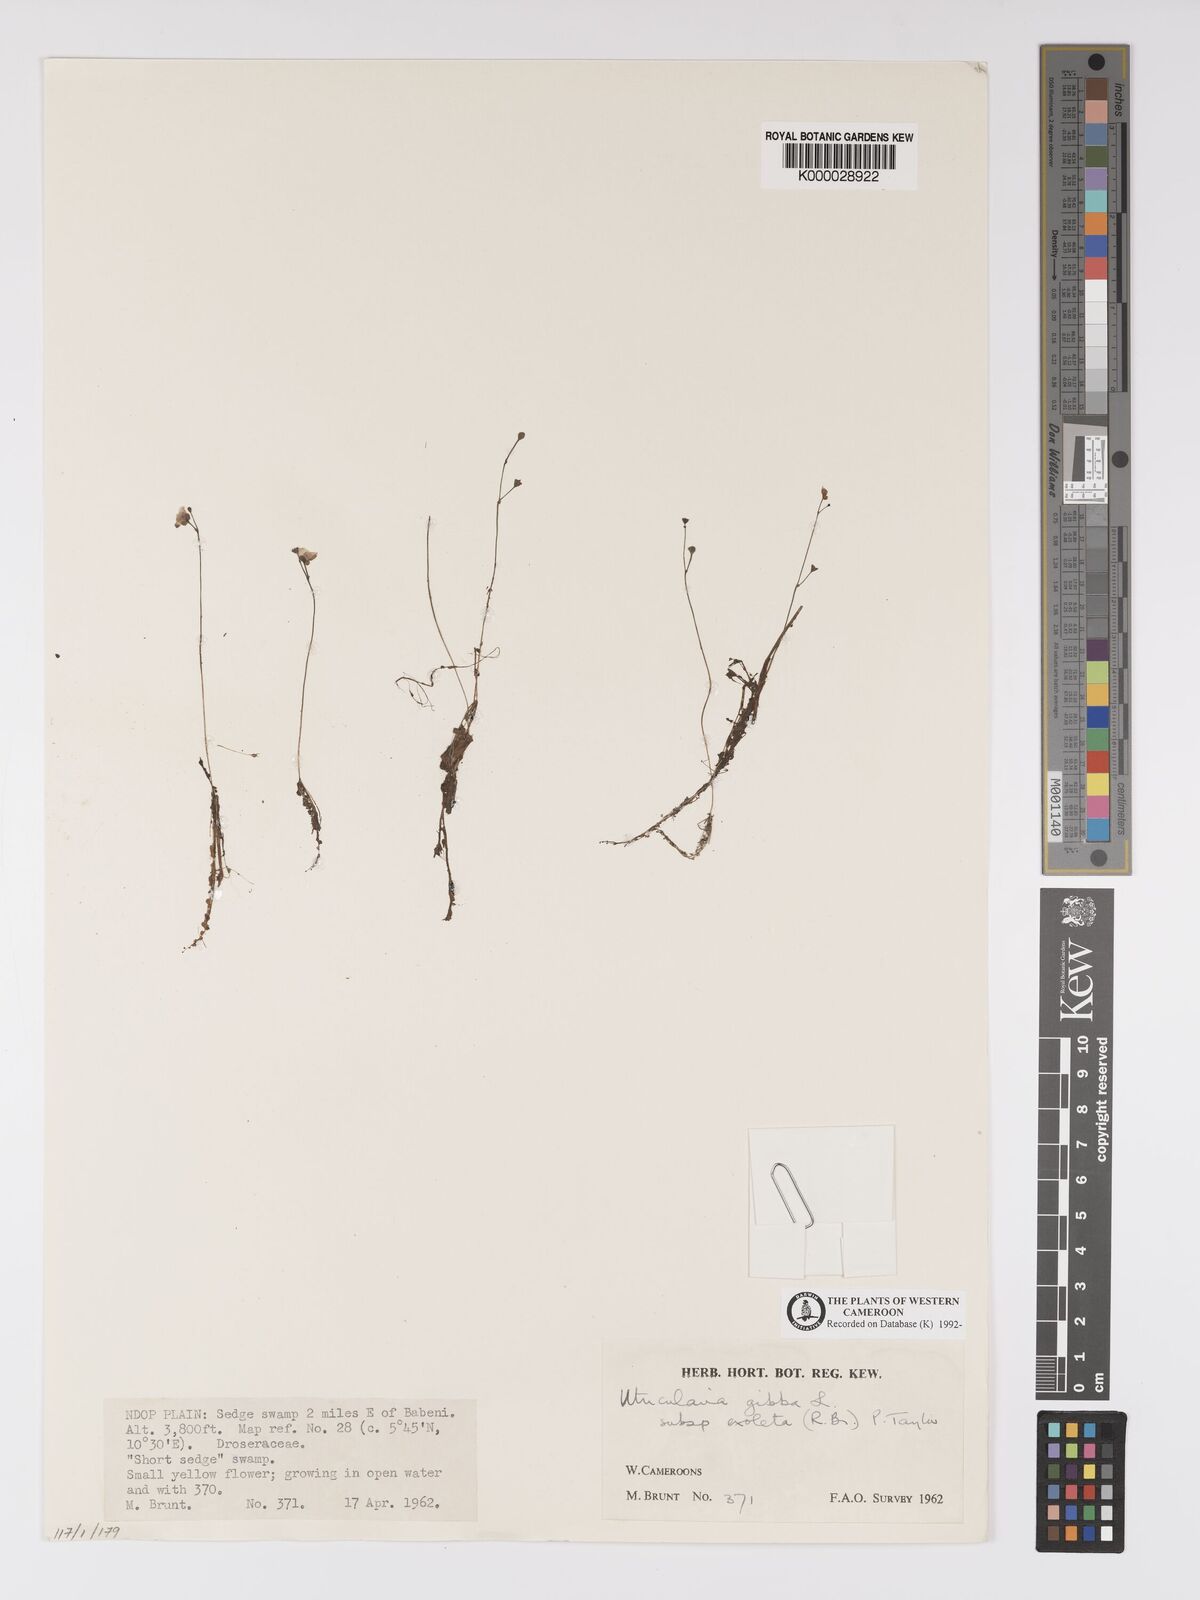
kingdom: Plantae
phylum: Tracheophyta
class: Magnoliopsida
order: Lamiales
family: Lentibulariaceae
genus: Utricularia
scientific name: Utricularia gibba
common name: Humped bladderwort
